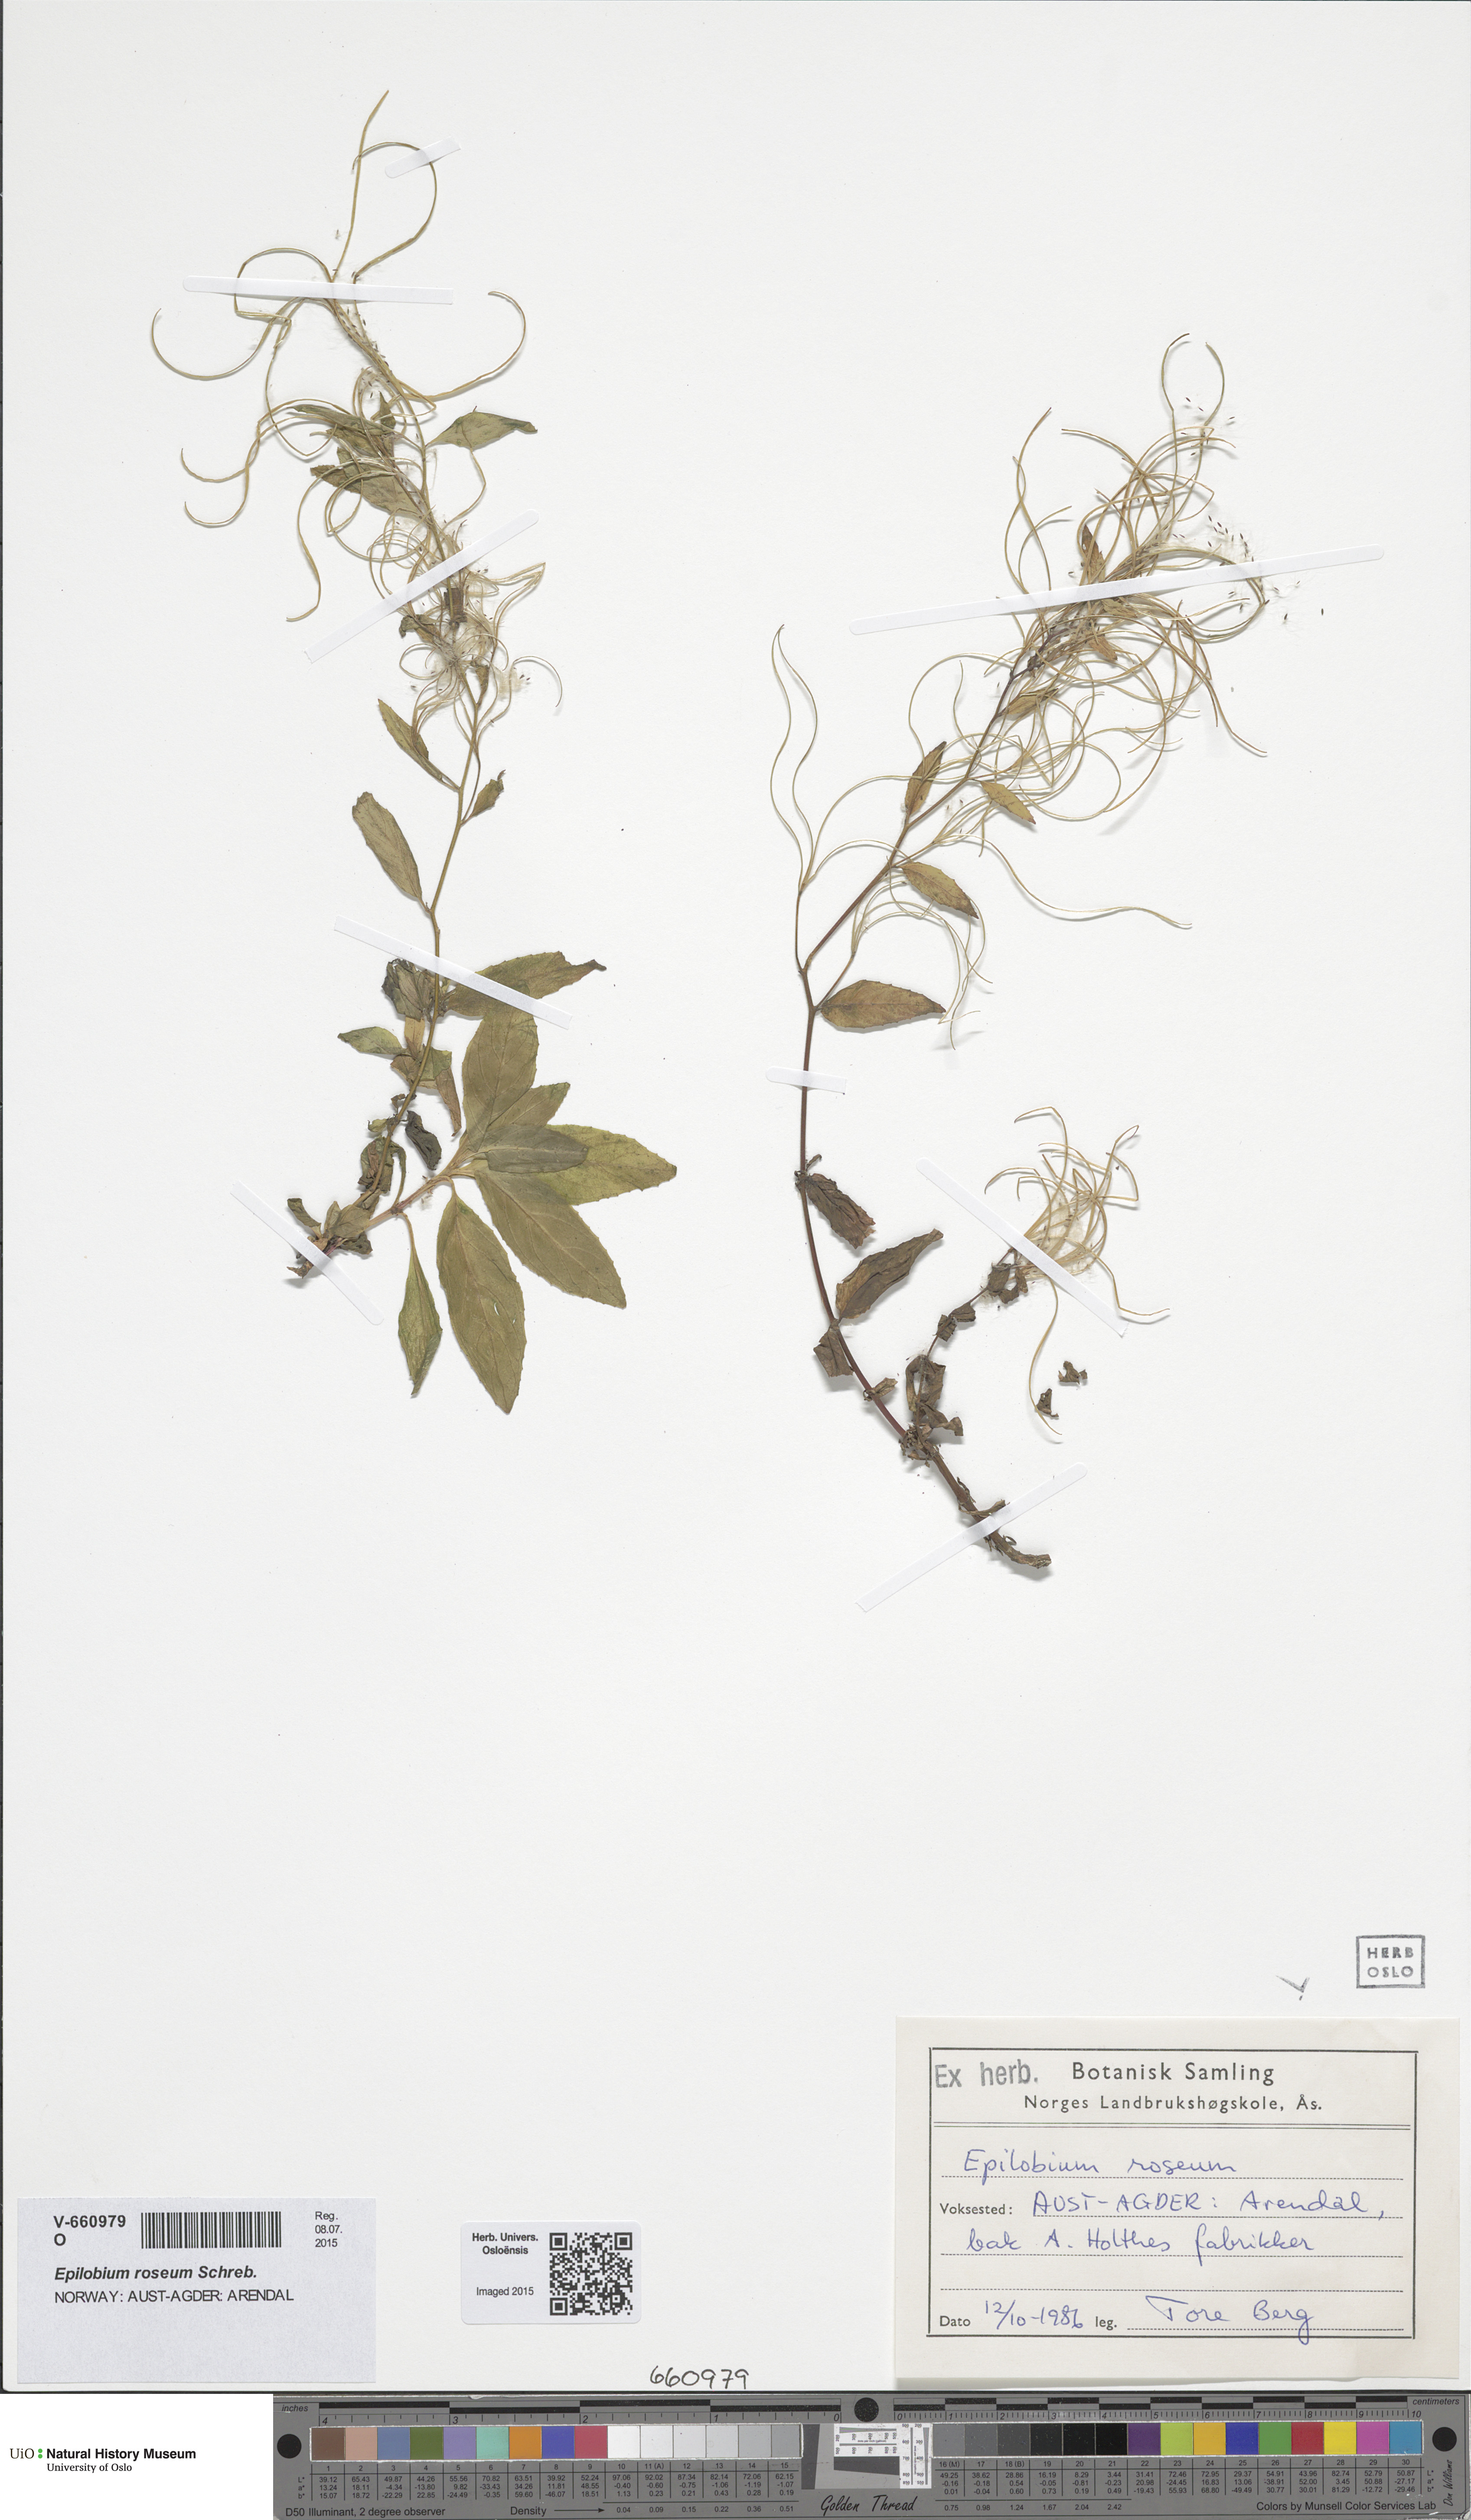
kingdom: Plantae
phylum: Tracheophyta
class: Magnoliopsida
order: Myrtales
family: Onagraceae
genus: Epilobium
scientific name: Epilobium ciliatum
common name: American willowherb
